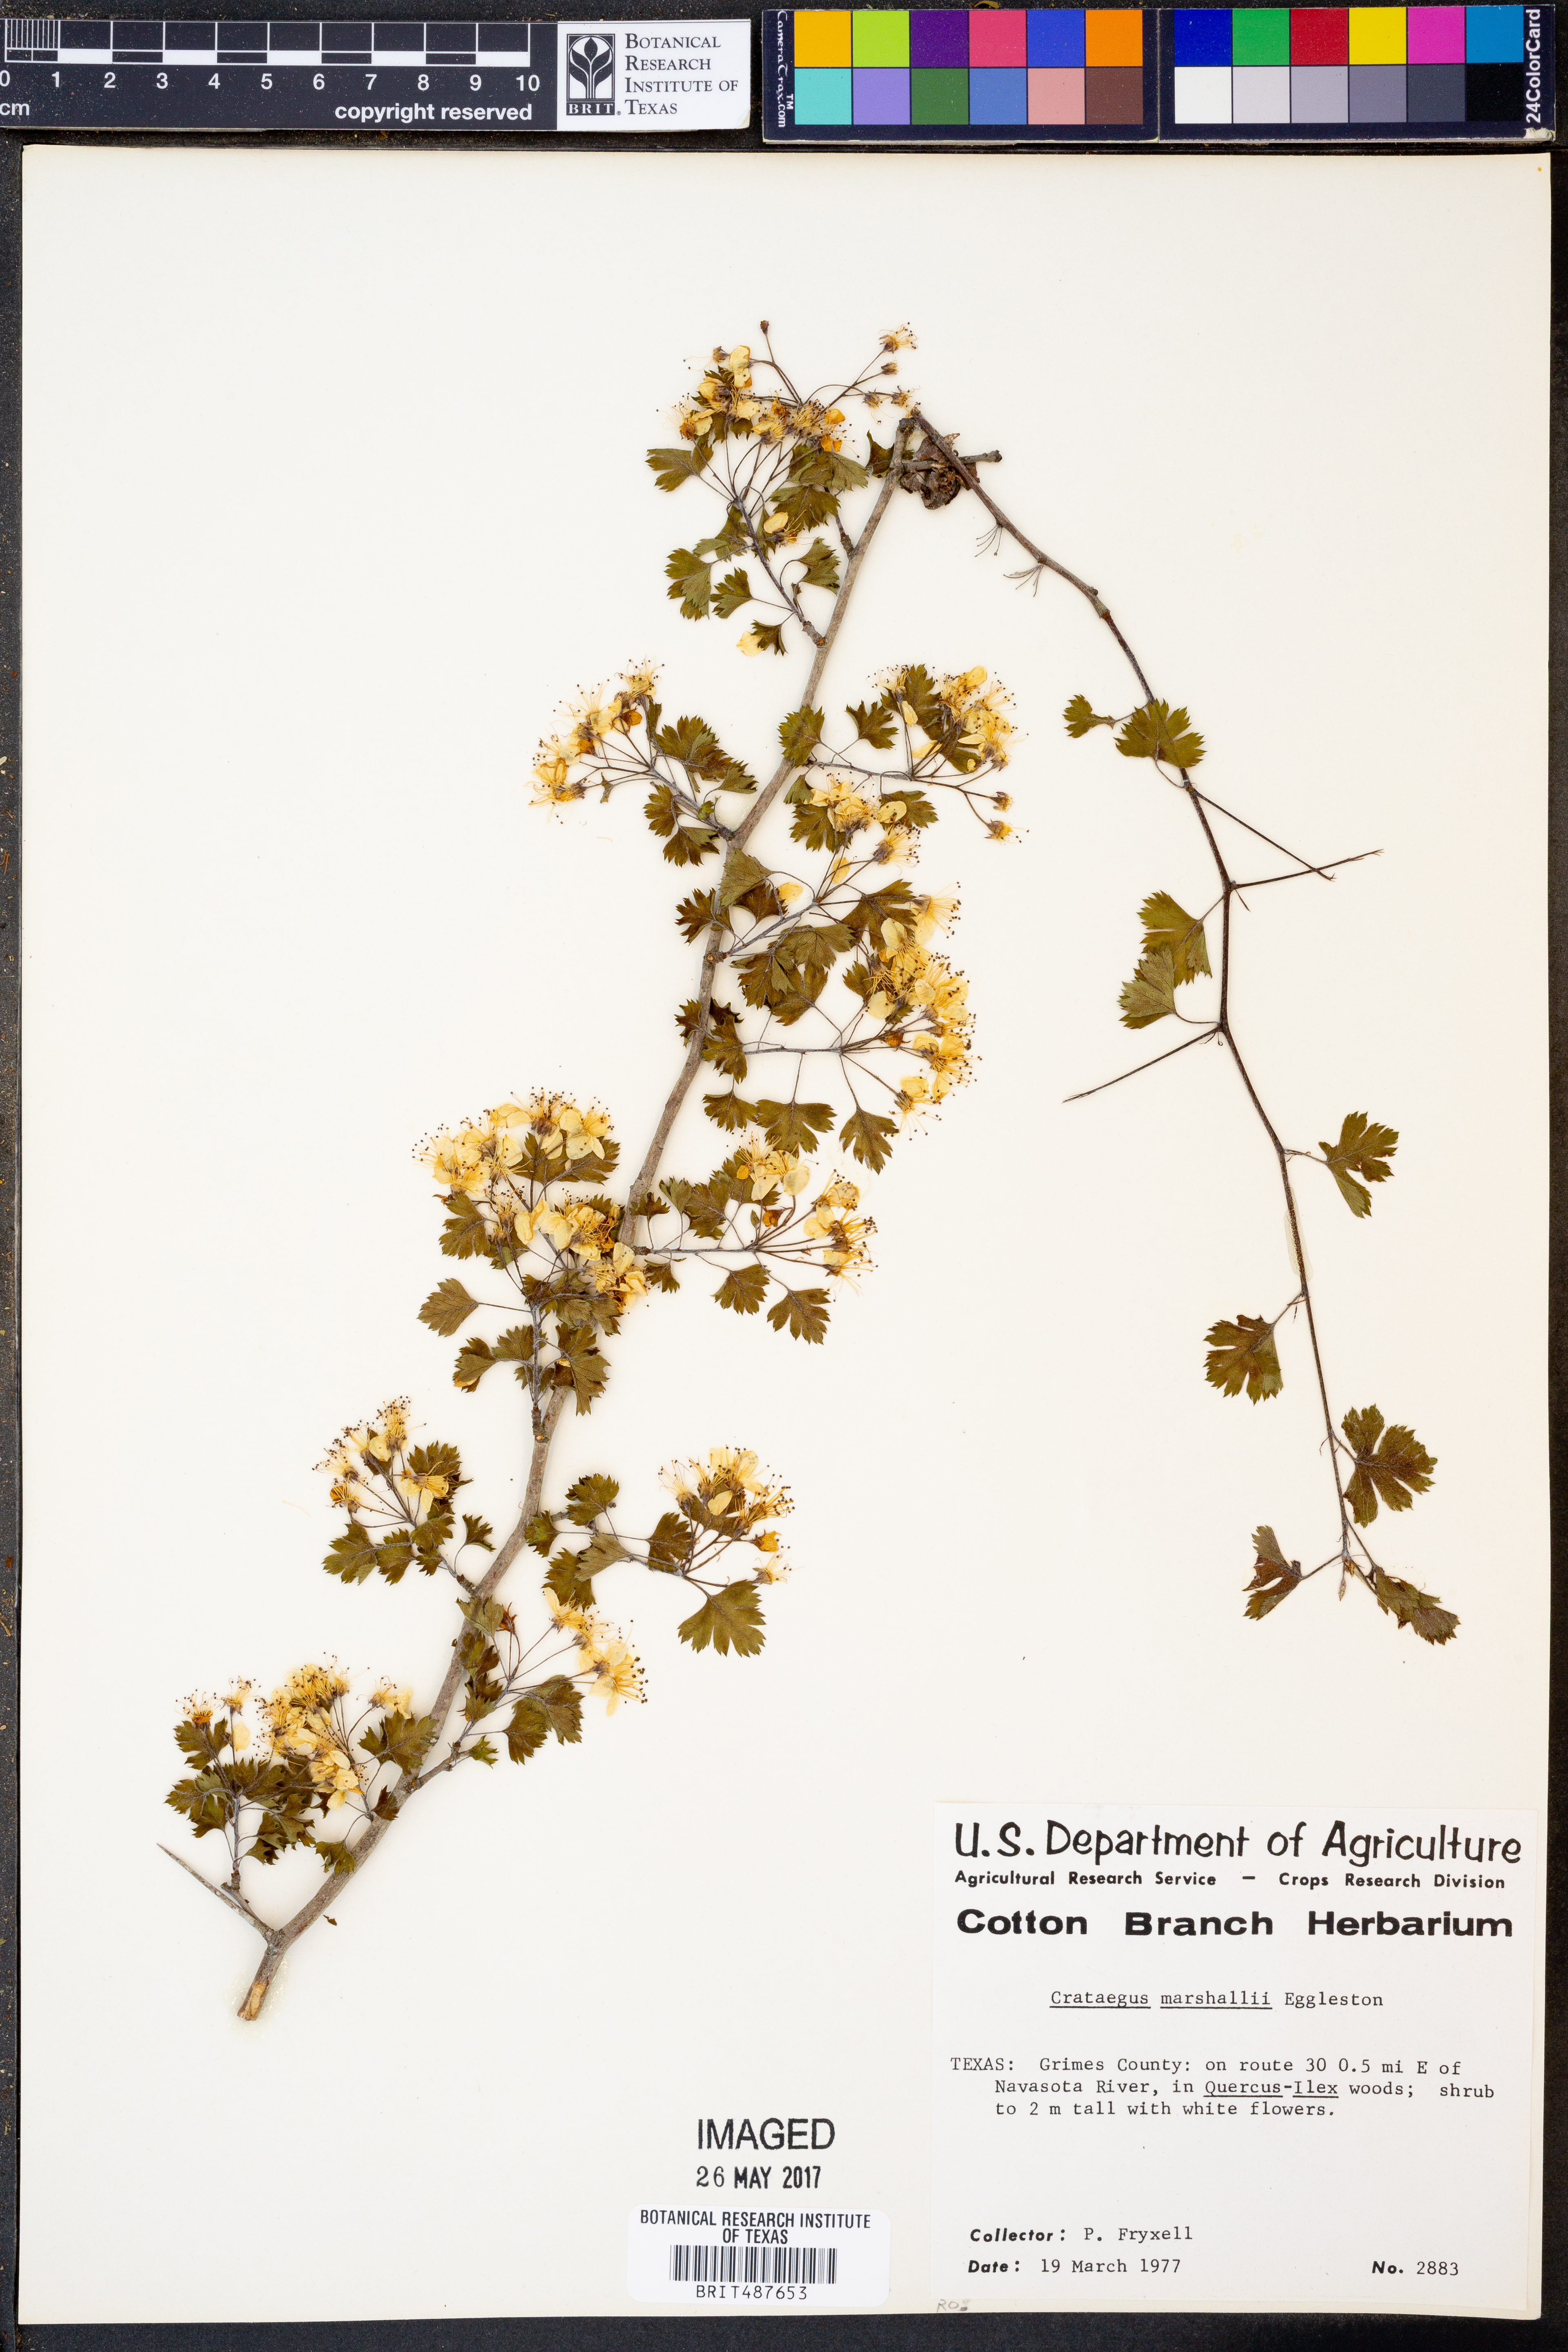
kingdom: Plantae
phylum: Tracheophyta
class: Magnoliopsida
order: Rosales
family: Rosaceae
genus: Crataegus
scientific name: Crataegus marshallii
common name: Parsley-hawthorn
